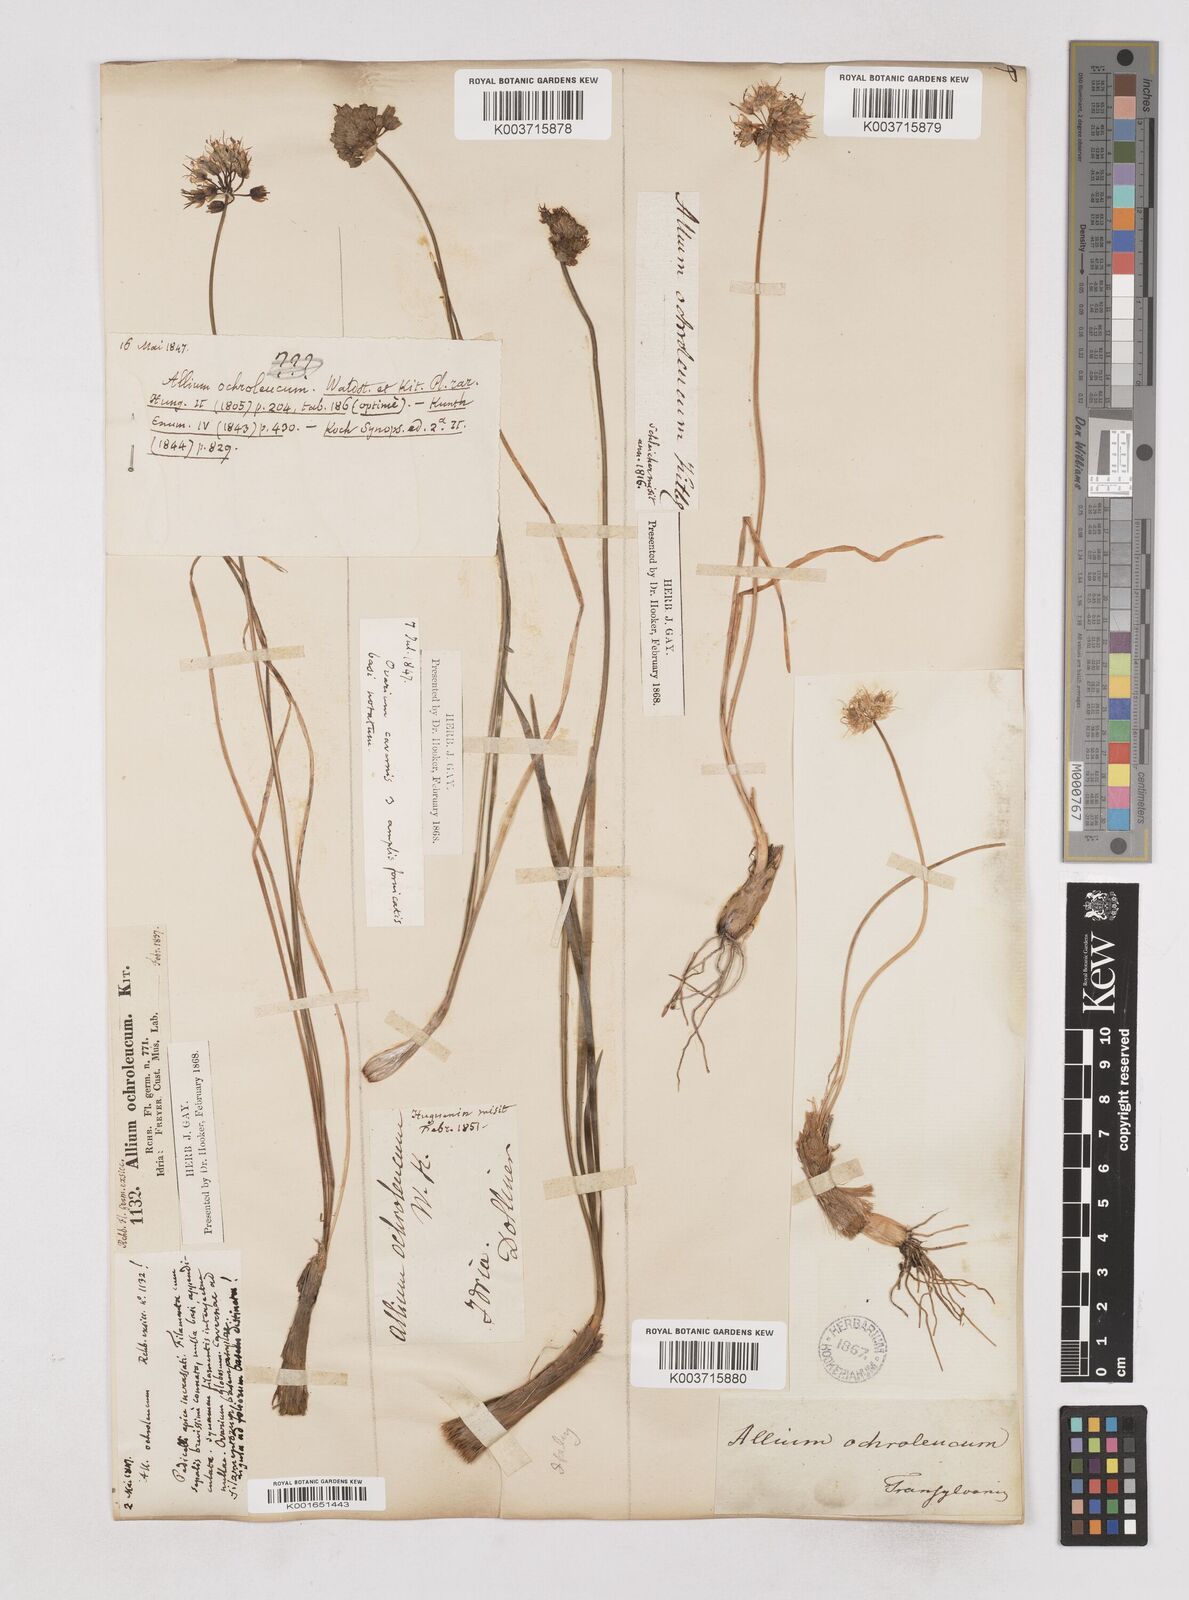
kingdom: Plantae
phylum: Tracheophyta
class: Liliopsida
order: Asparagales
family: Amaryllidaceae
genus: Allium
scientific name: Allium ericetorum
